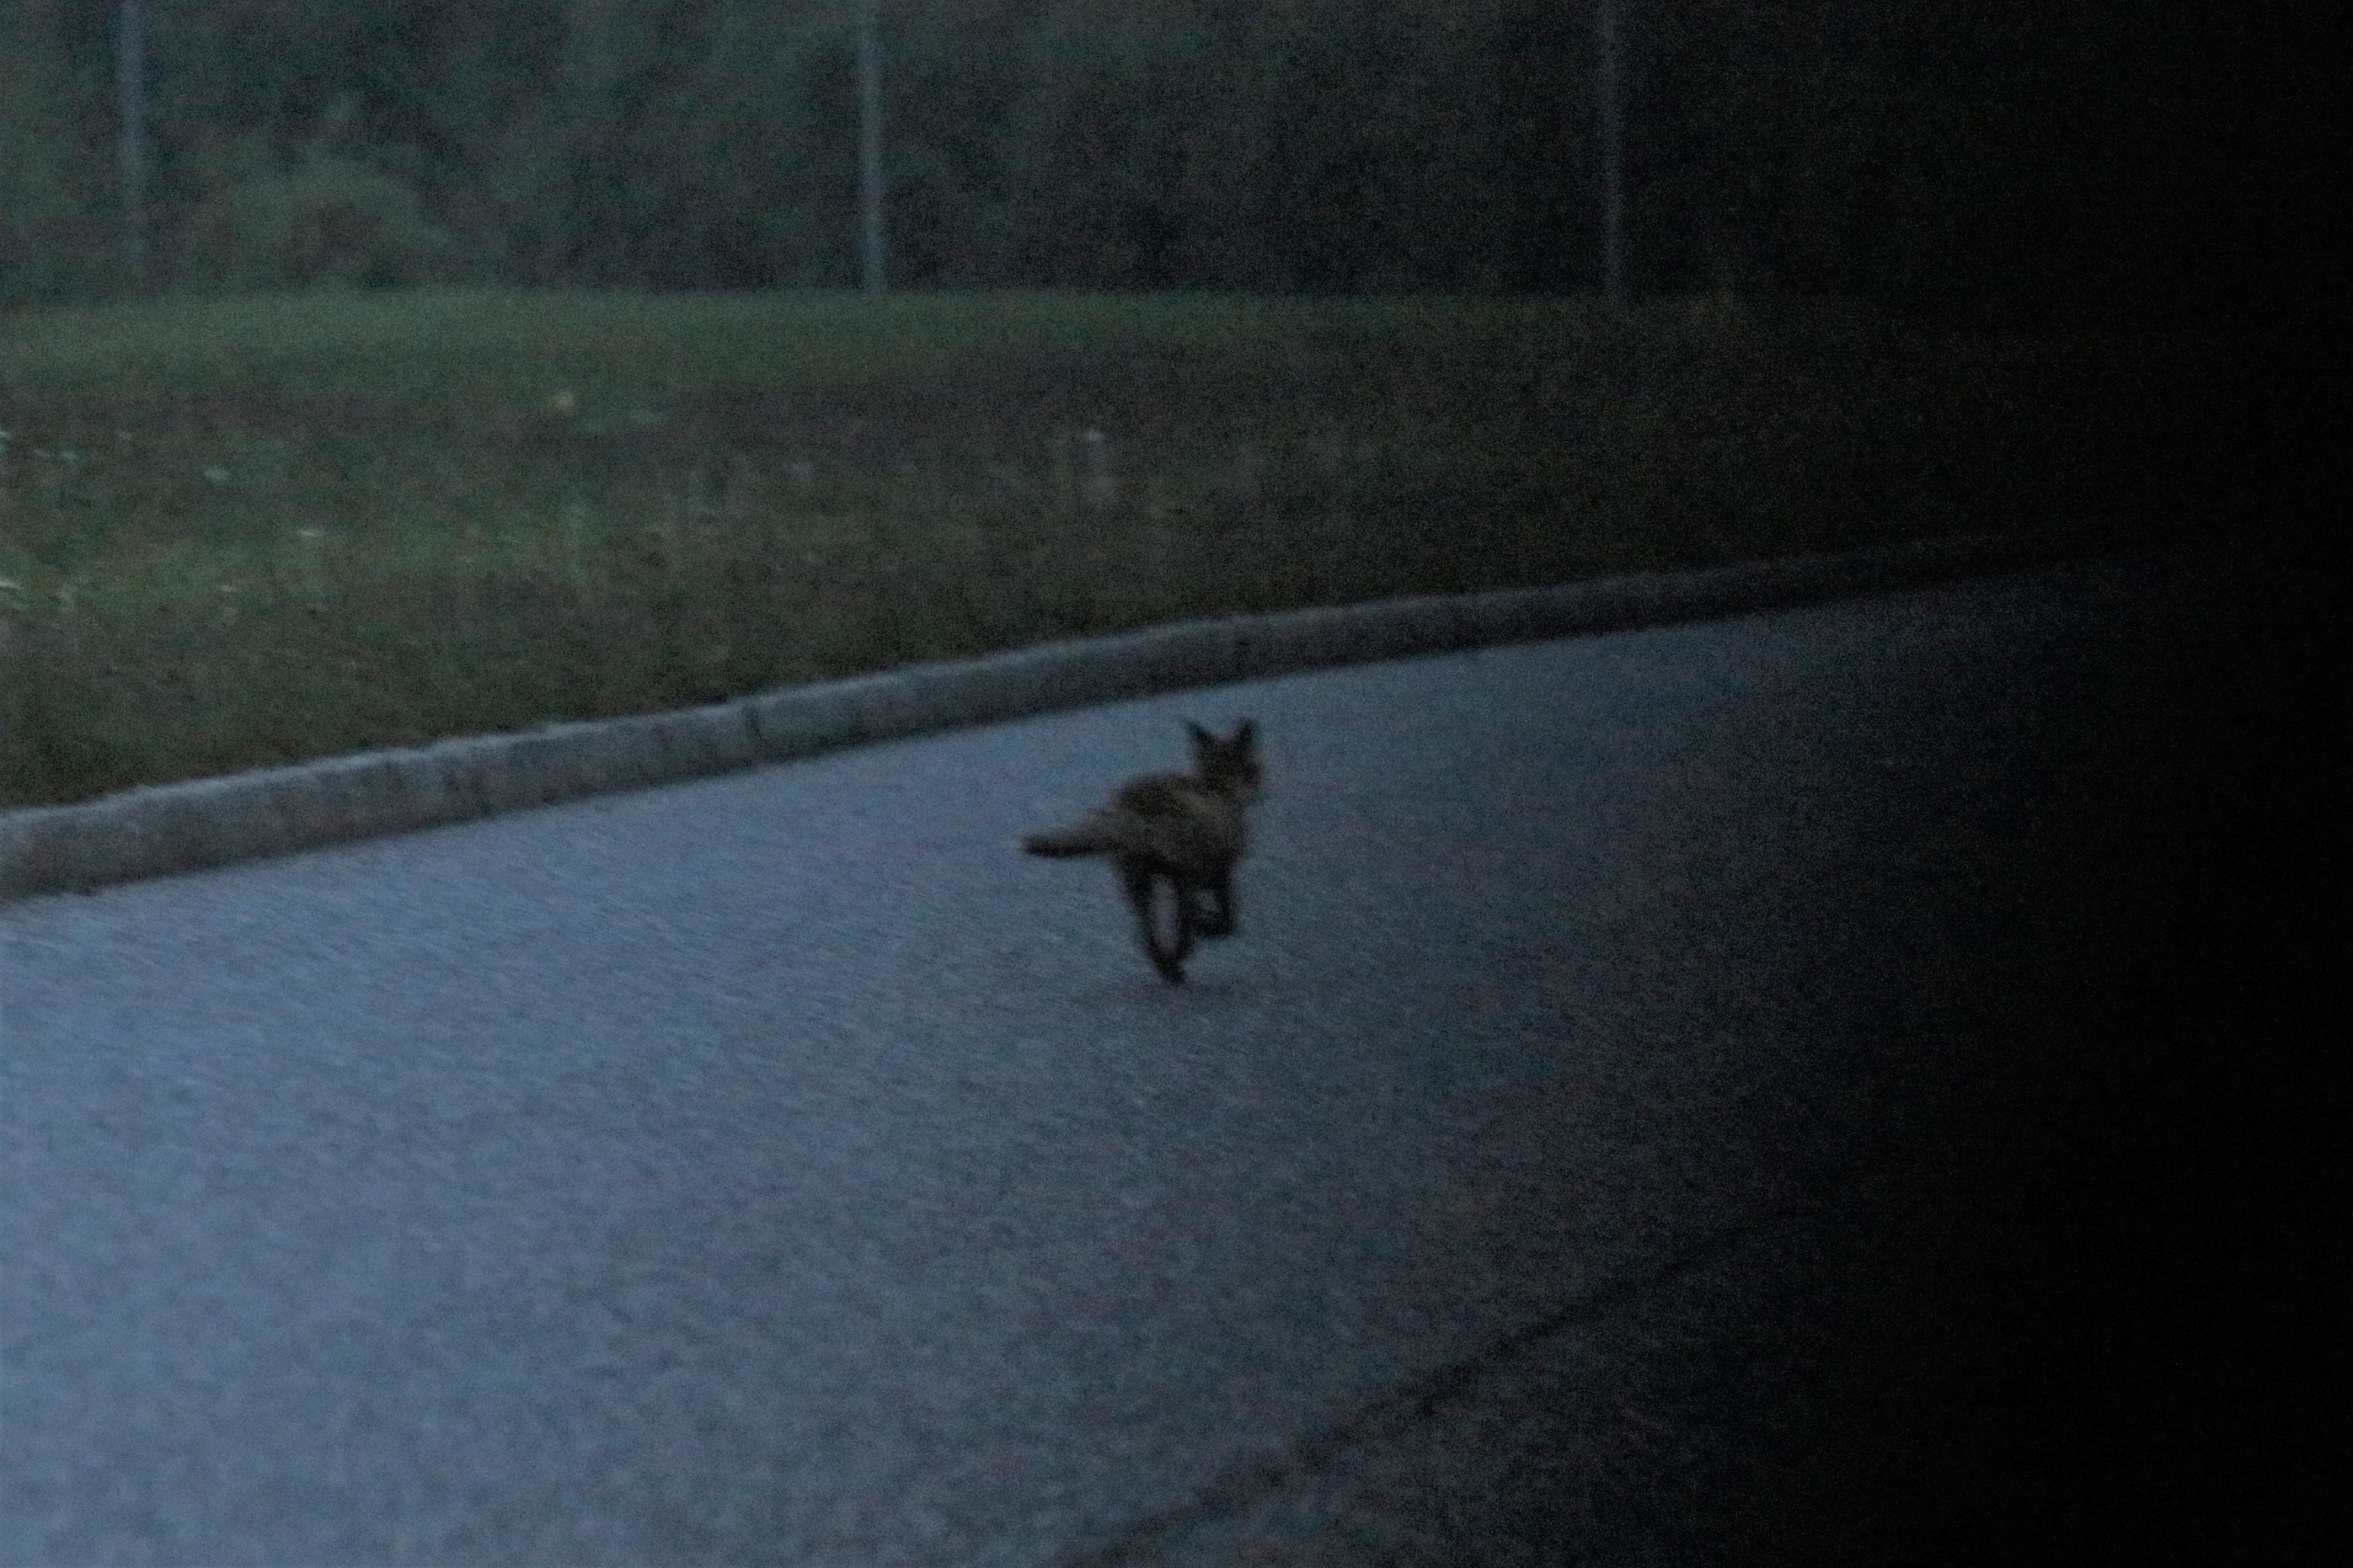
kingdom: Animalia
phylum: Chordata
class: Mammalia
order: Carnivora
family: Canidae
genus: Vulpes
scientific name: Vulpes vulpes
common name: Ræv
